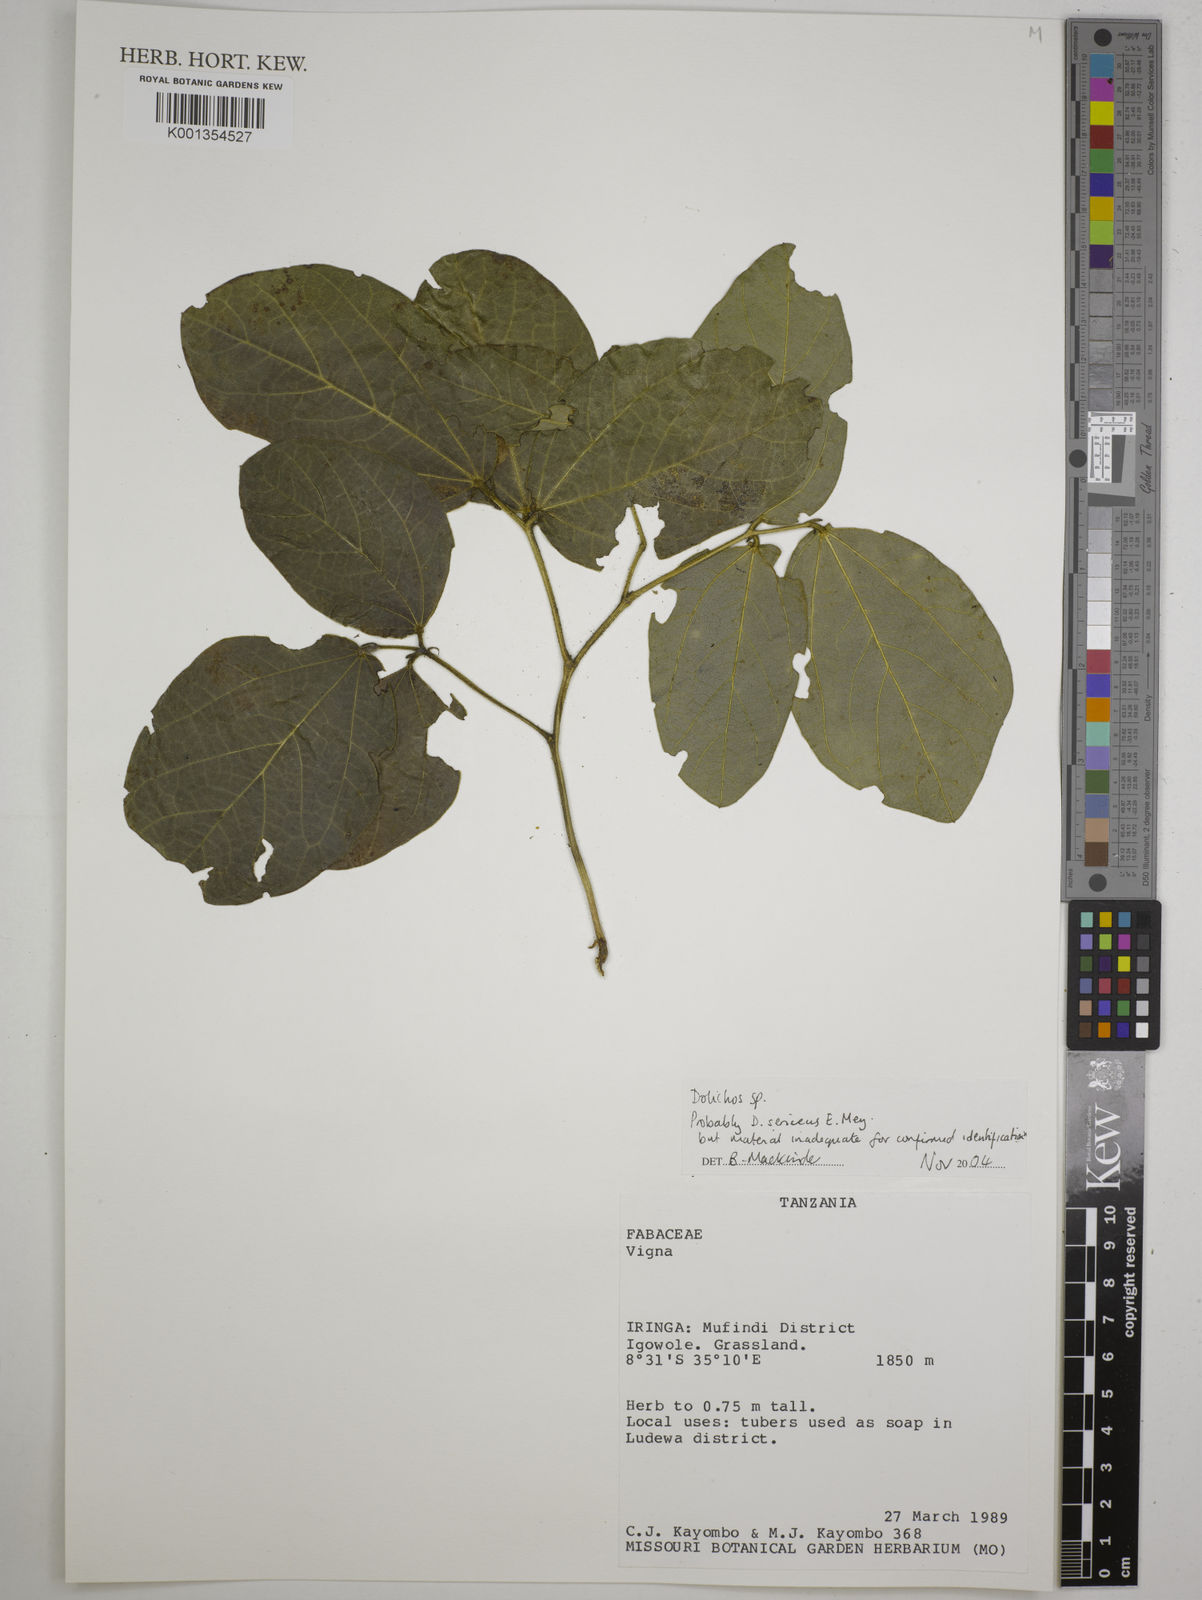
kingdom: Plantae
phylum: Tracheophyta
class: Magnoliopsida
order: Fabales
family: Fabaceae
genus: Dolichos
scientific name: Dolichos
